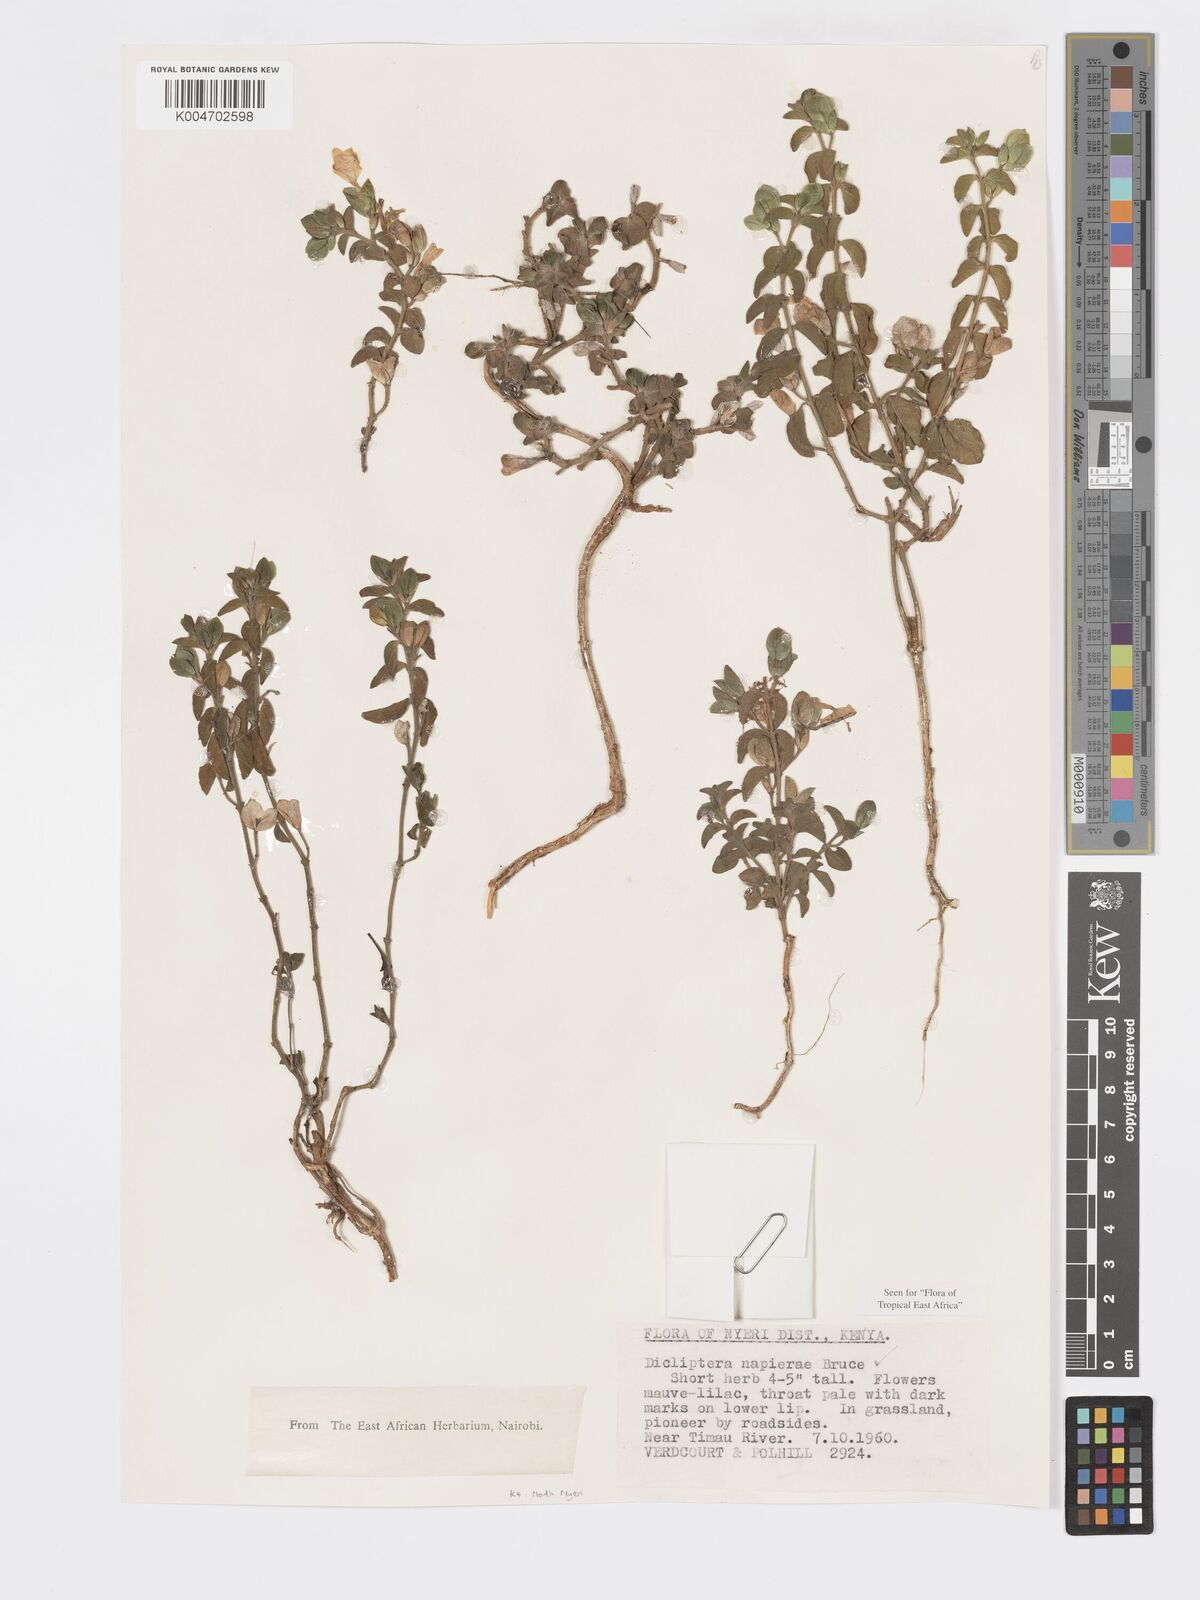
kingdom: Plantae
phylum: Tracheophyta
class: Magnoliopsida
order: Lamiales
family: Acanthaceae
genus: Dicliptera
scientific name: Dicliptera napierae
